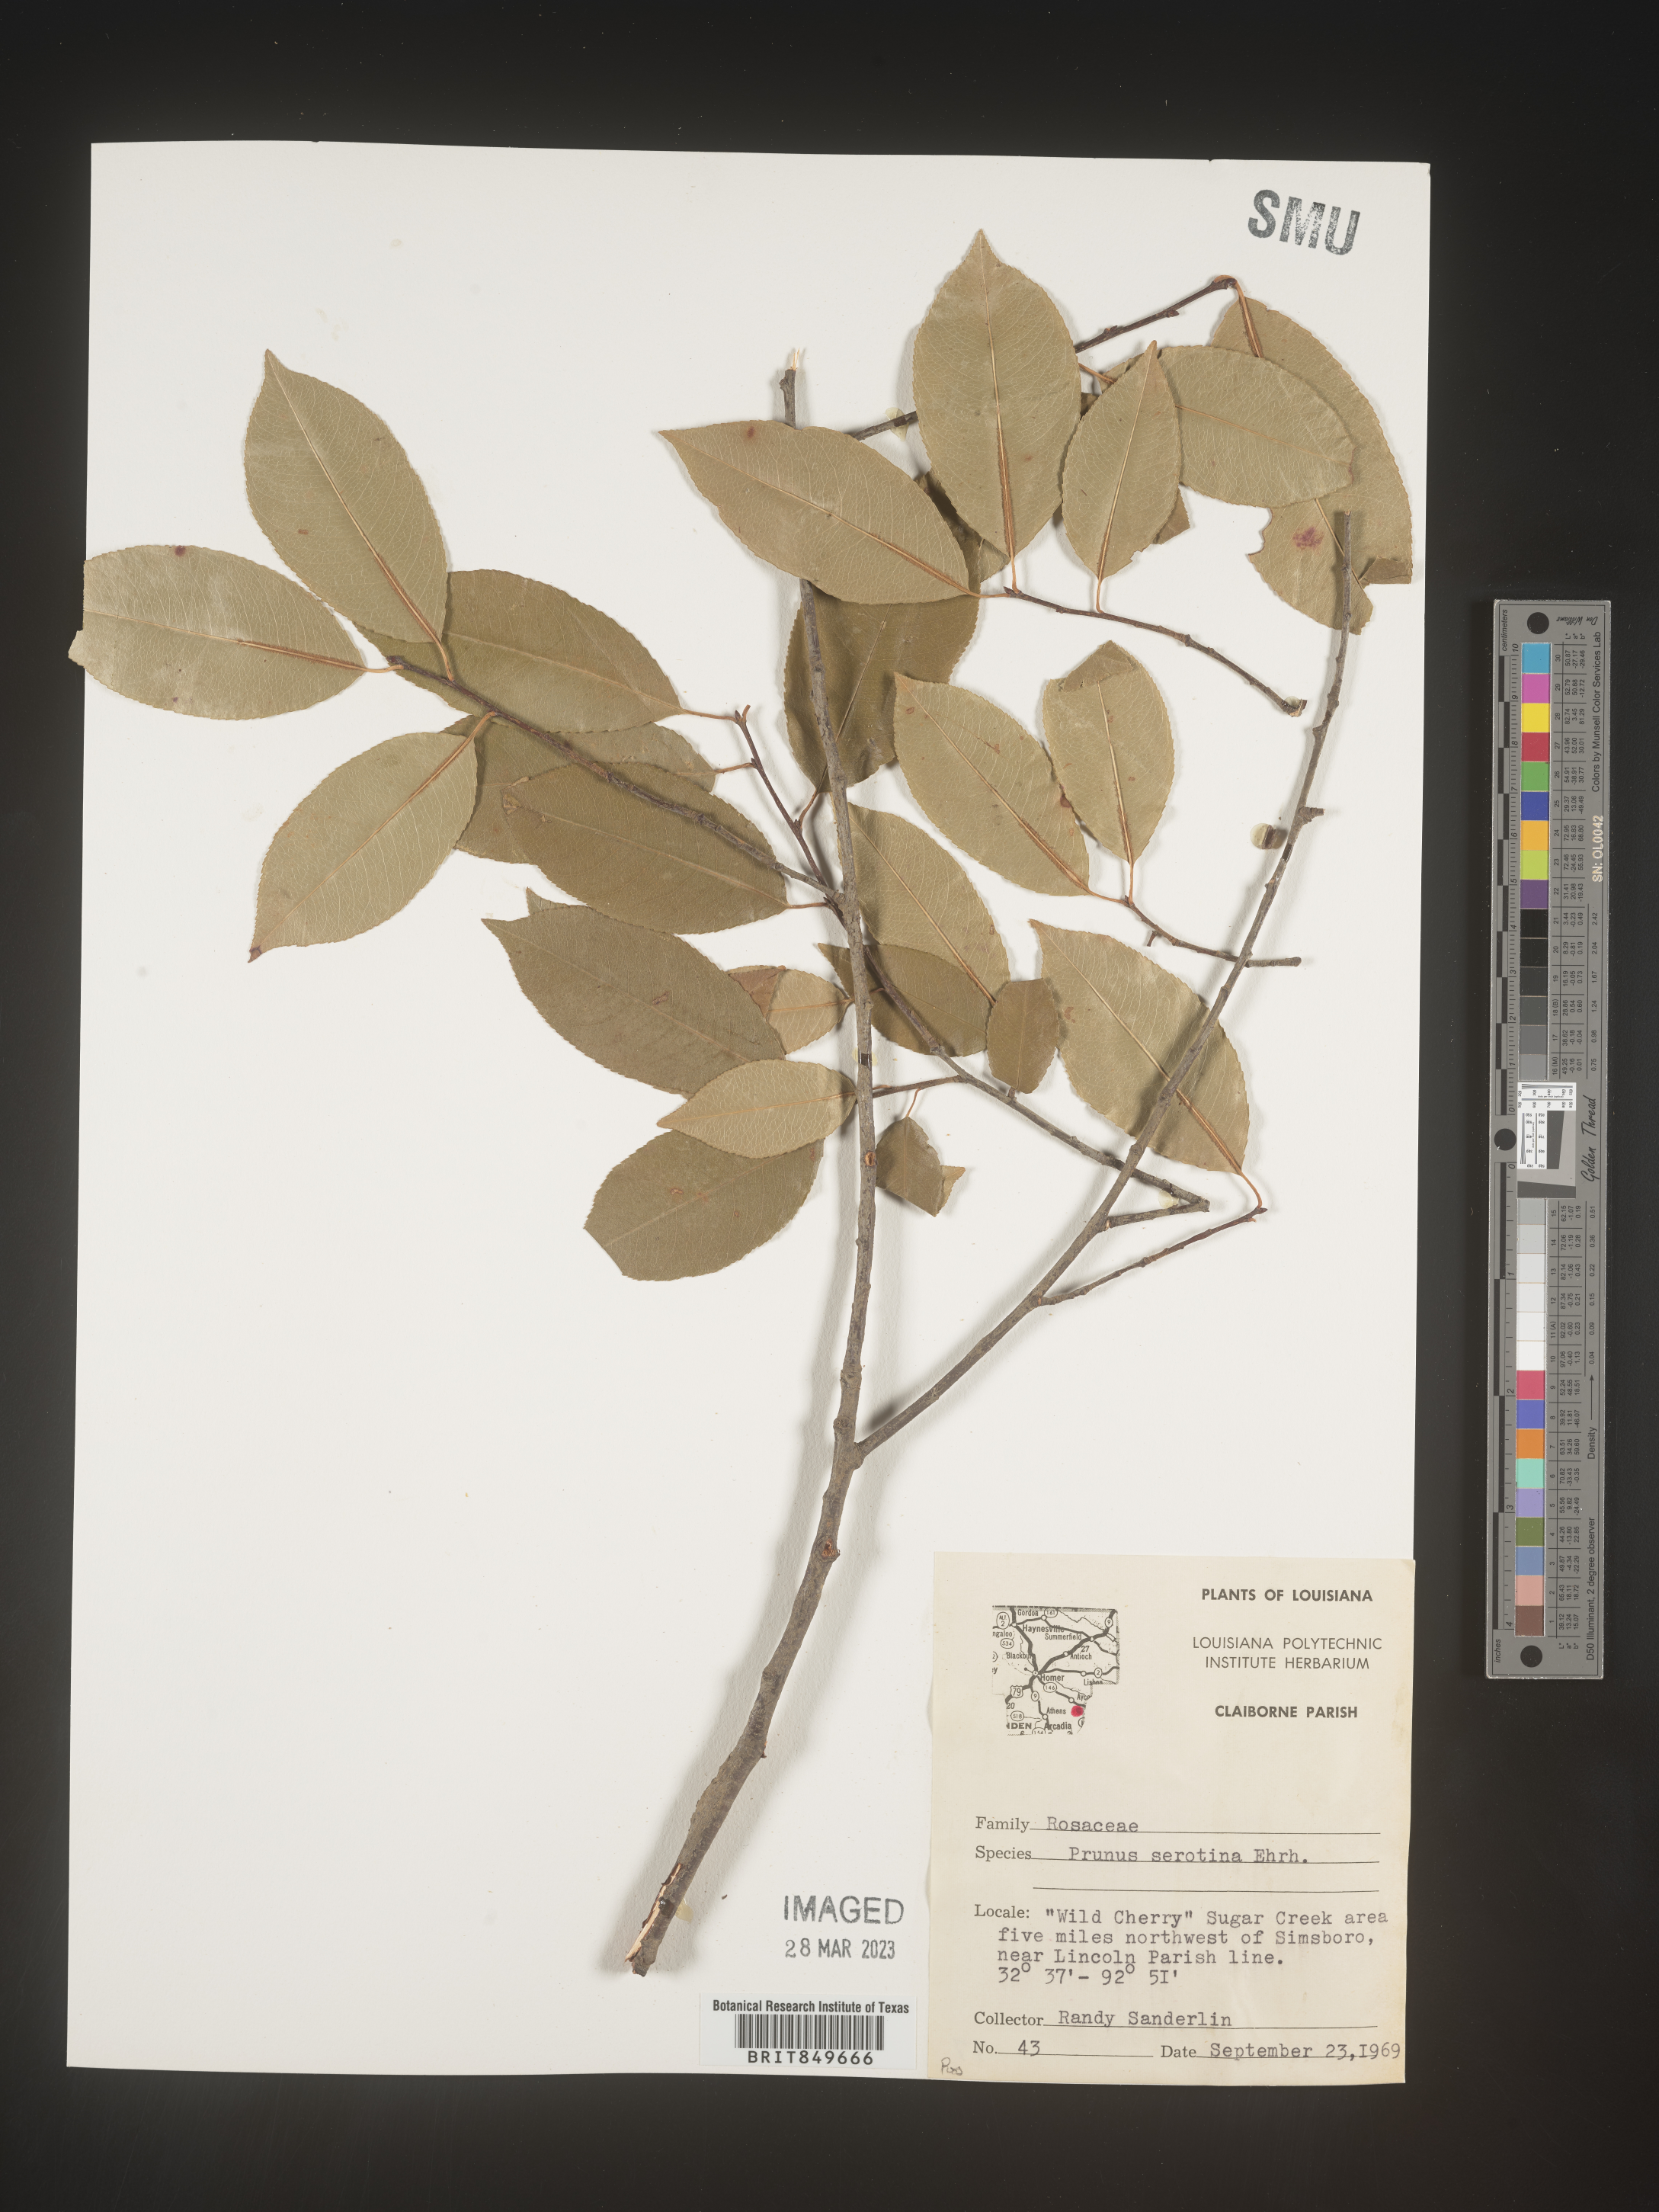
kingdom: Plantae
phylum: Tracheophyta
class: Magnoliopsida
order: Rosales
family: Rosaceae
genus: Prunus
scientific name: Prunus serotina
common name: Black cherry
